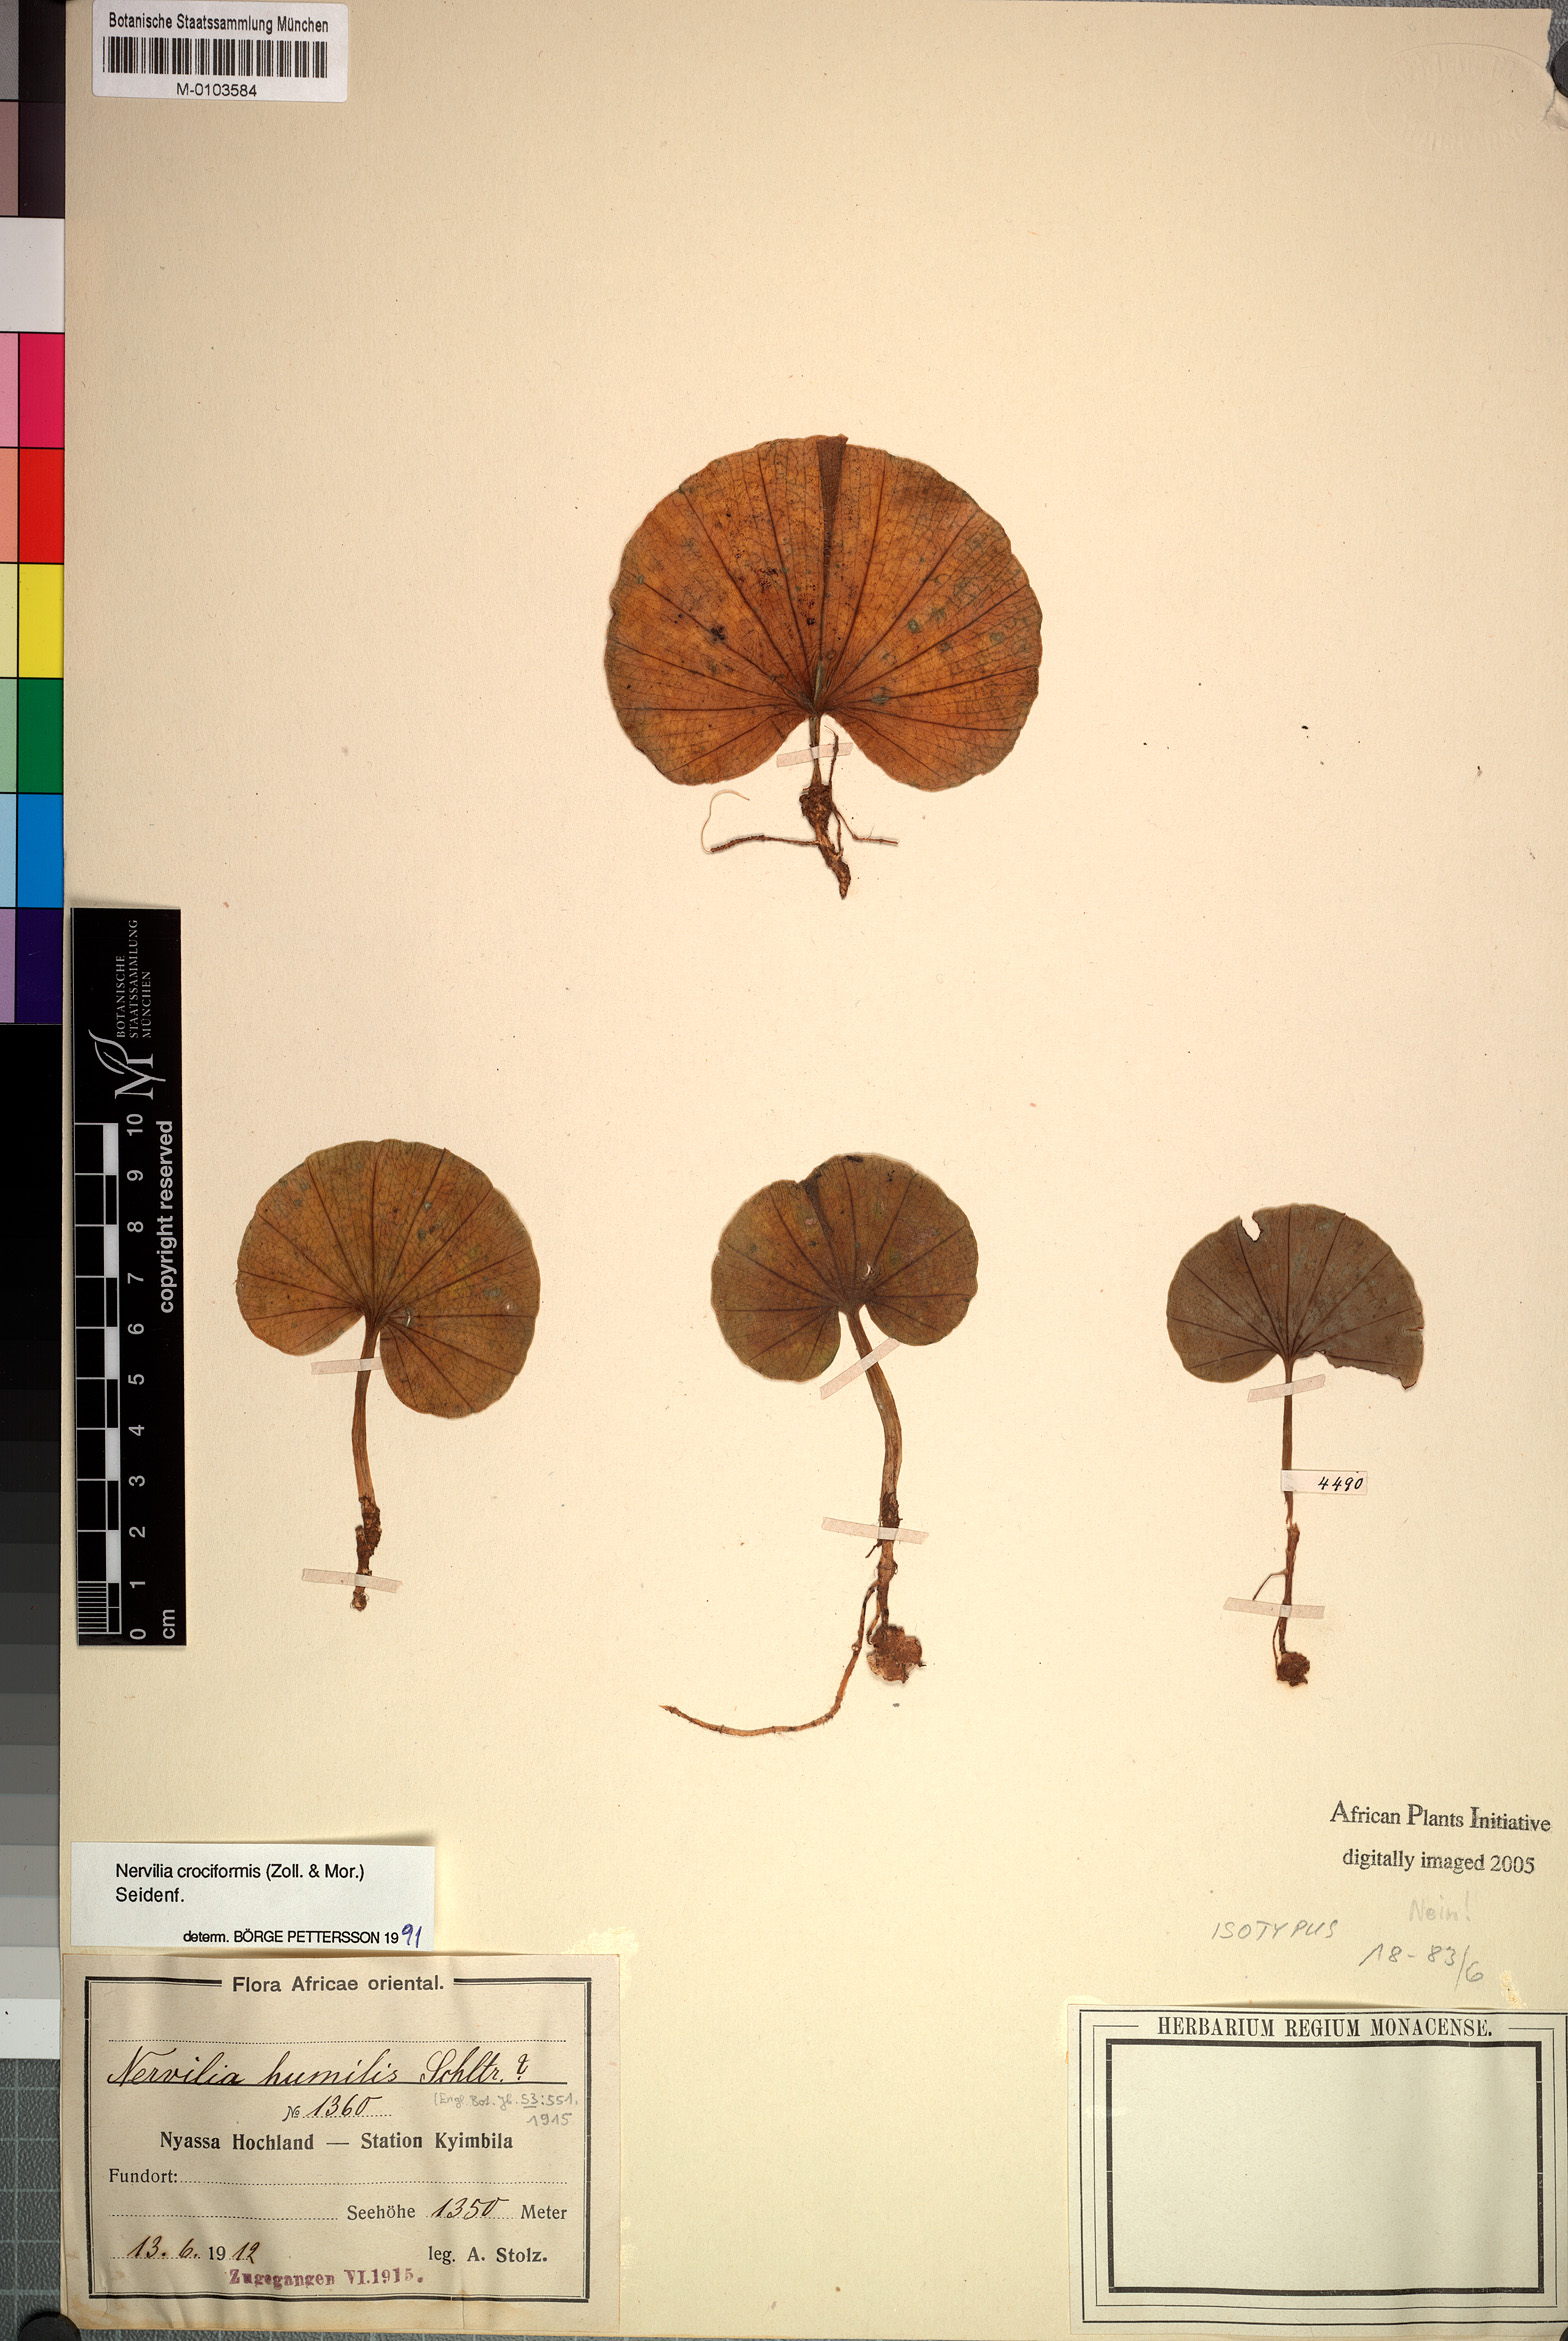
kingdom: Plantae
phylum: Tracheophyta
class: Liliopsida
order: Asparagales
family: Orchidaceae
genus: Nervilia
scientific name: Nervilia simplex
